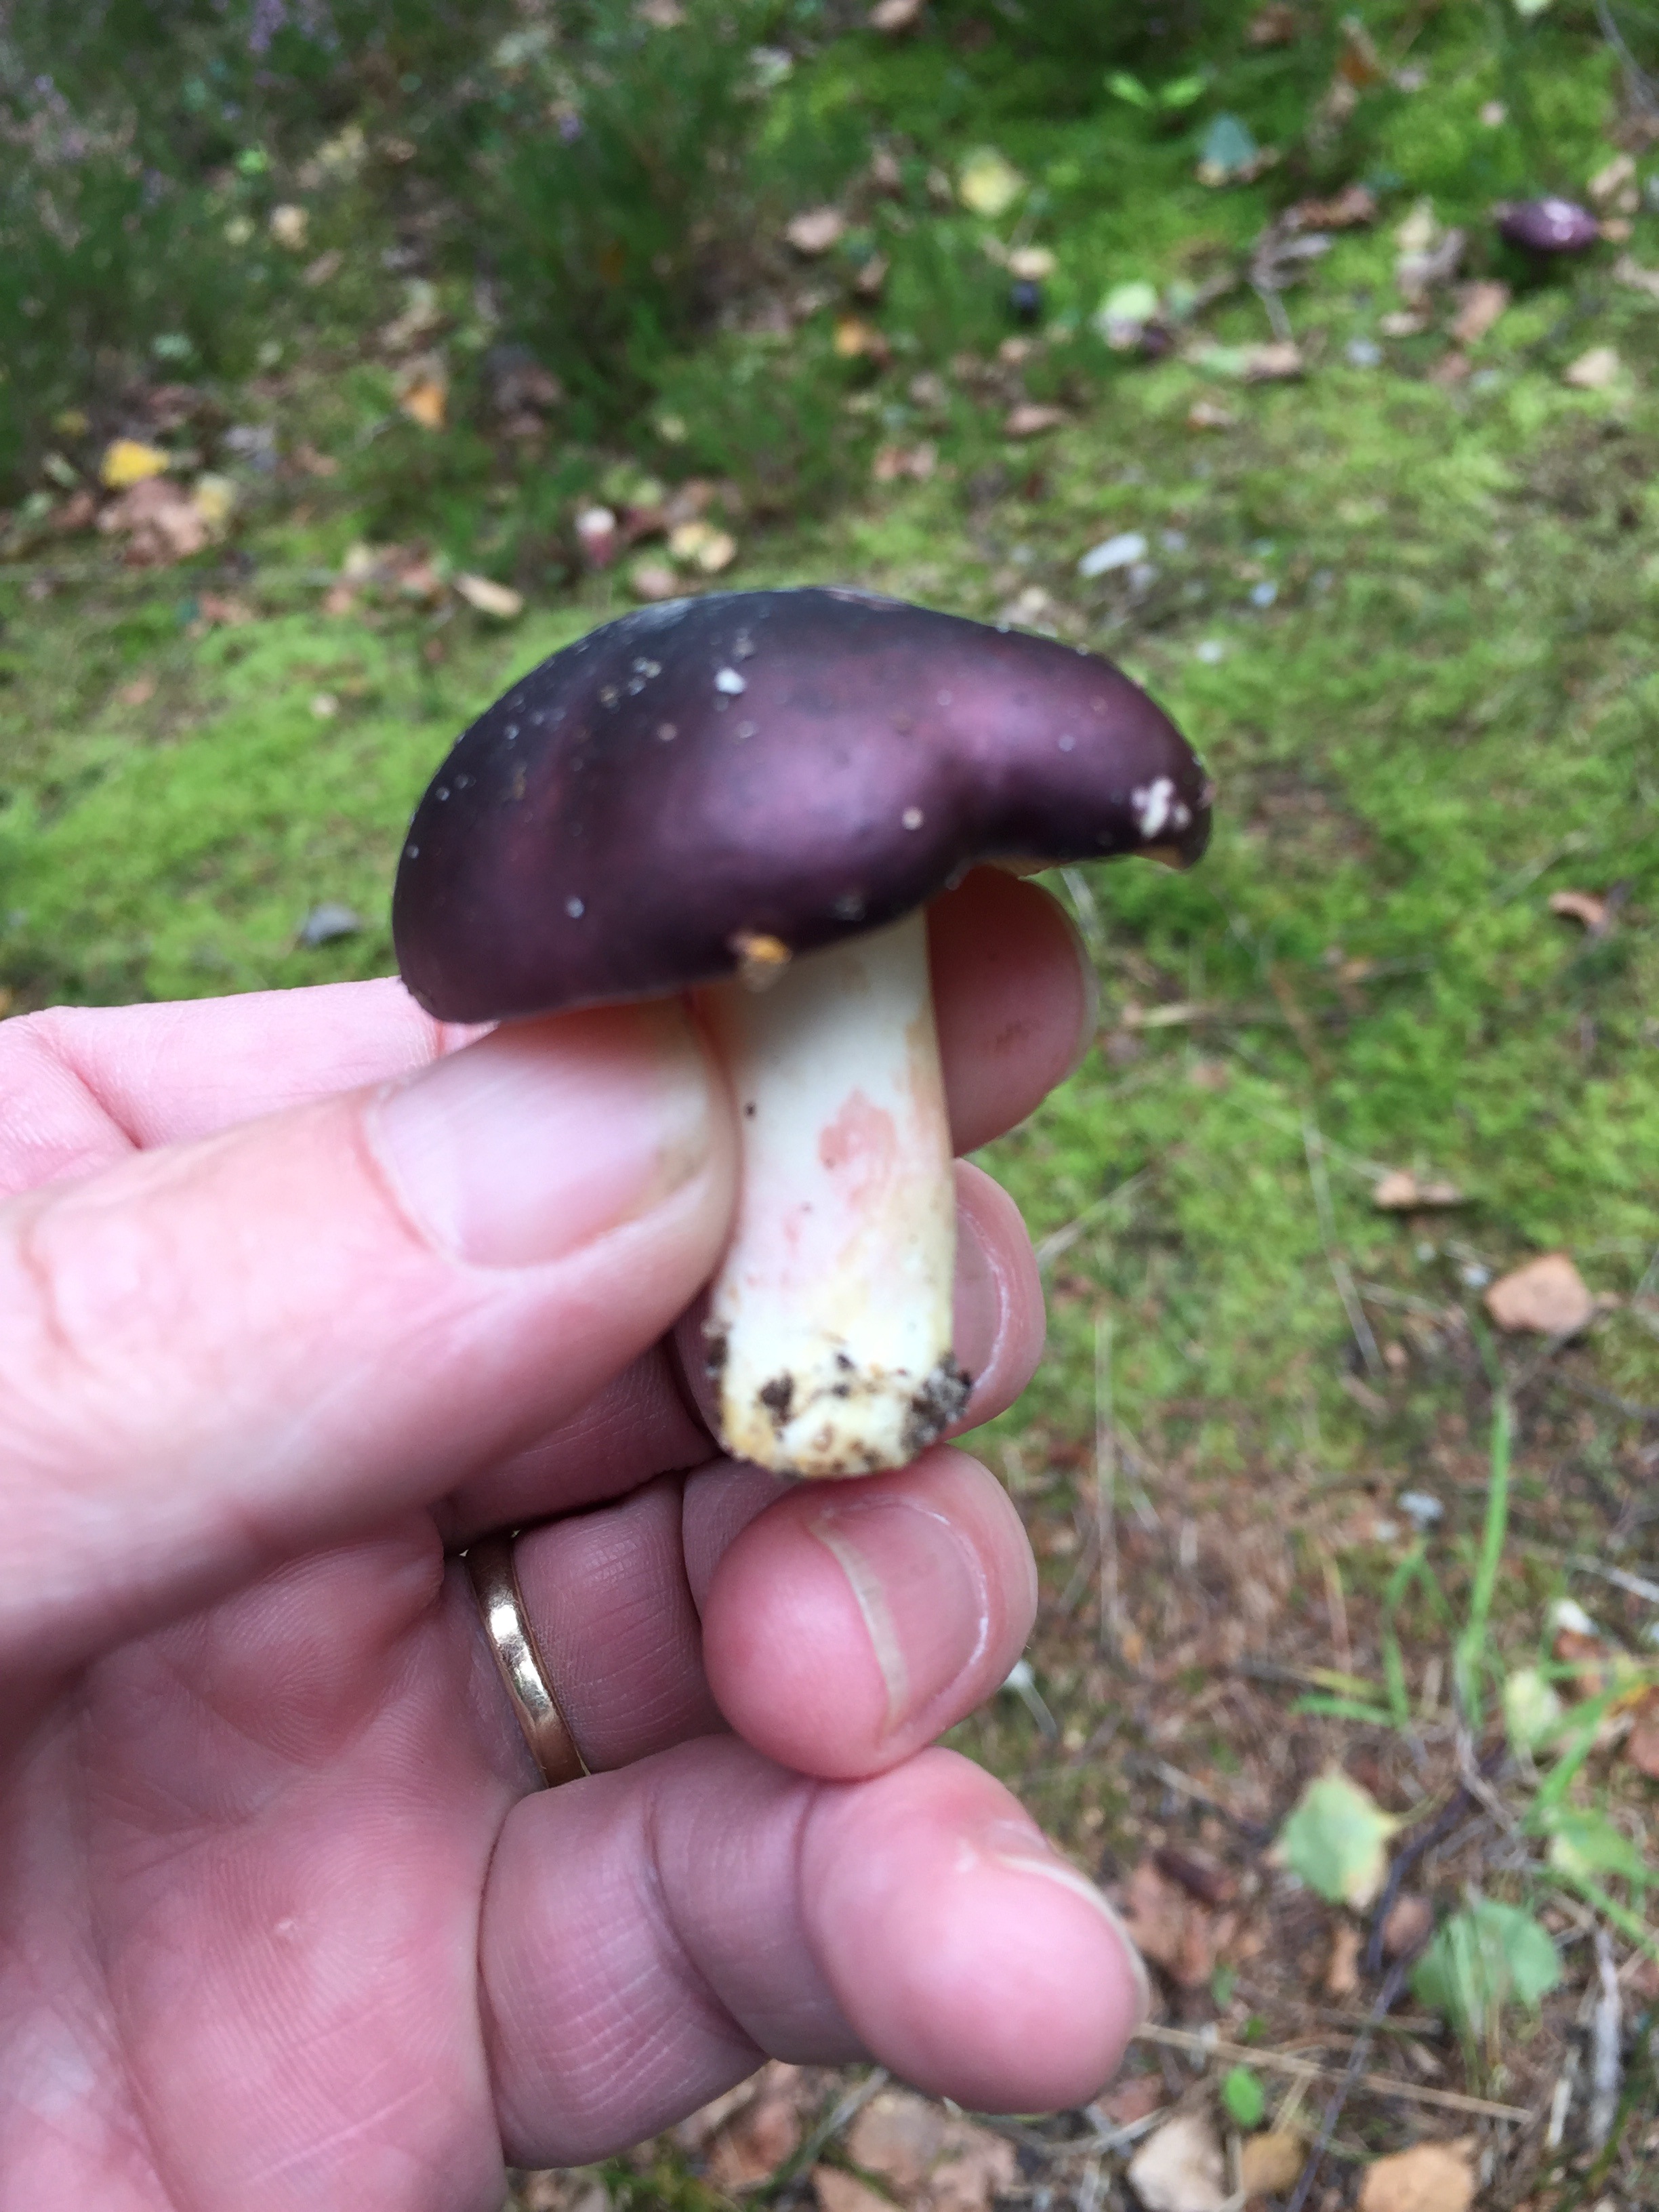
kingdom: Fungi
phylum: Basidiomycota
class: Agaricomycetes
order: Russulales
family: Russulaceae
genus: Russula
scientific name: Russula
